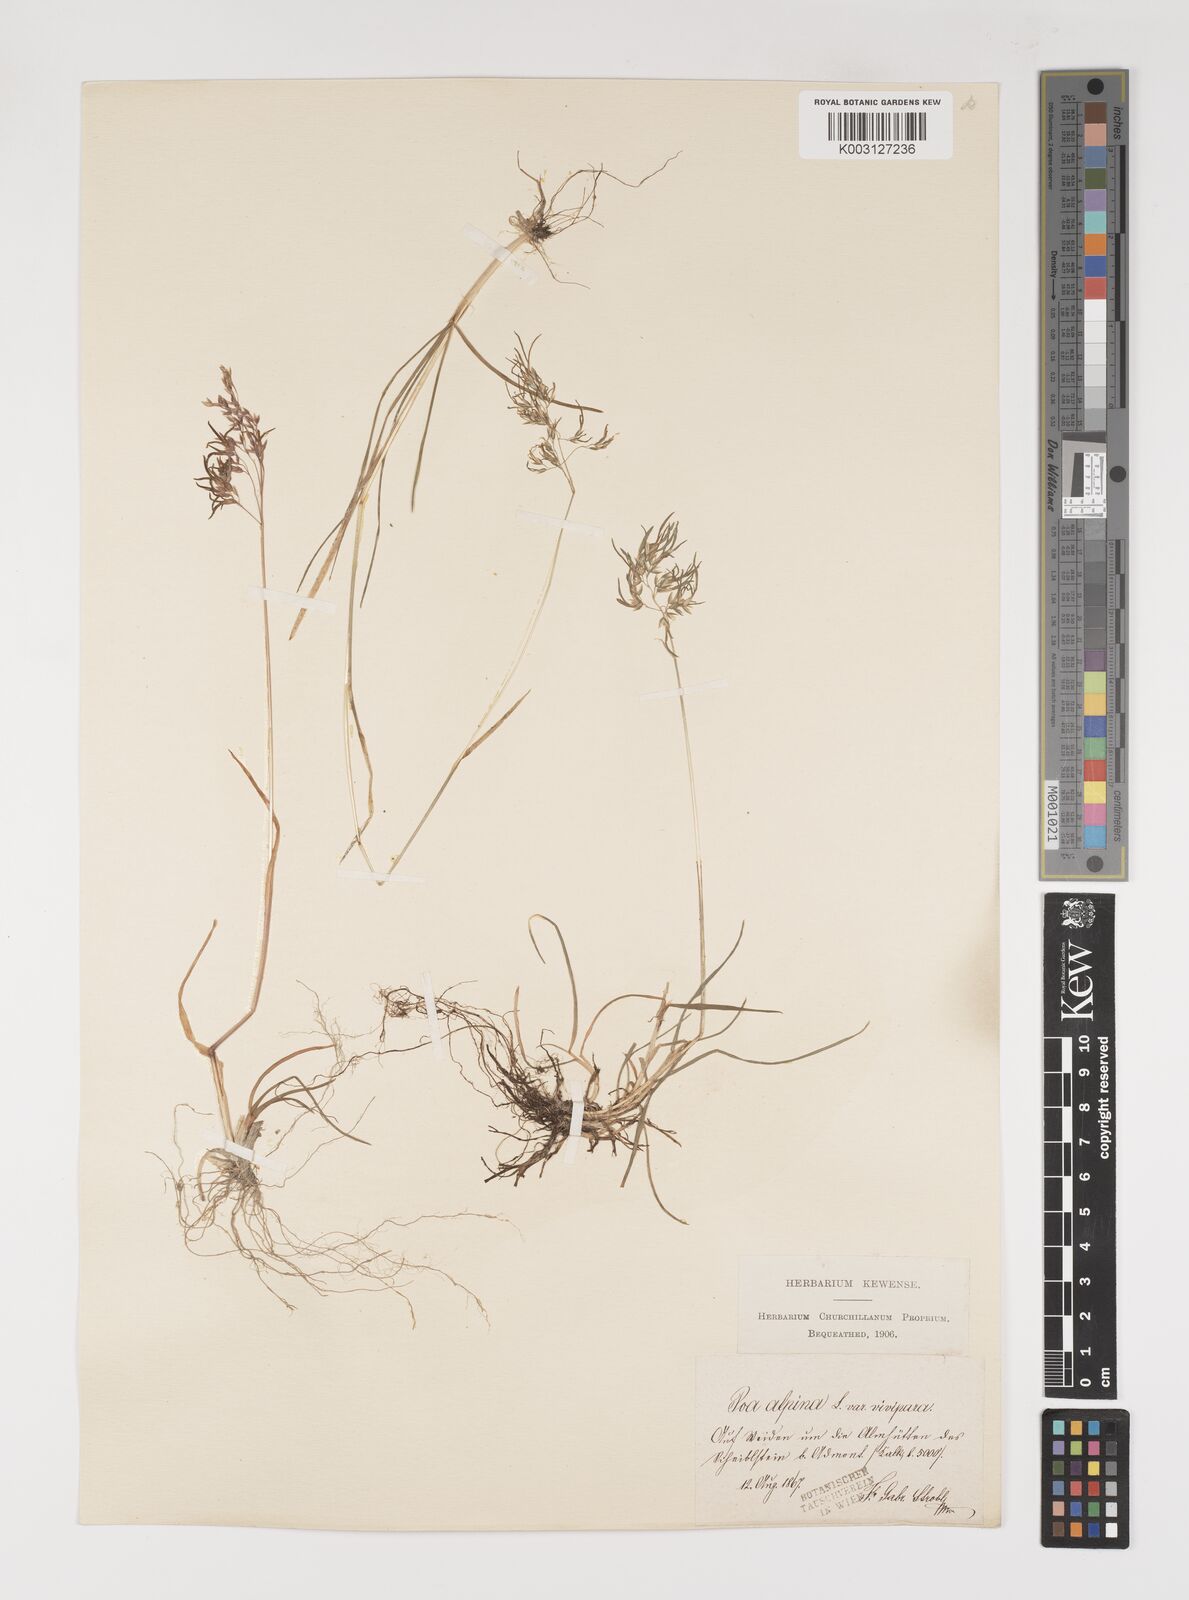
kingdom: Plantae
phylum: Tracheophyta
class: Liliopsida
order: Poales
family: Poaceae
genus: Poa
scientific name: Poa alpina
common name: Alpine bluegrass
